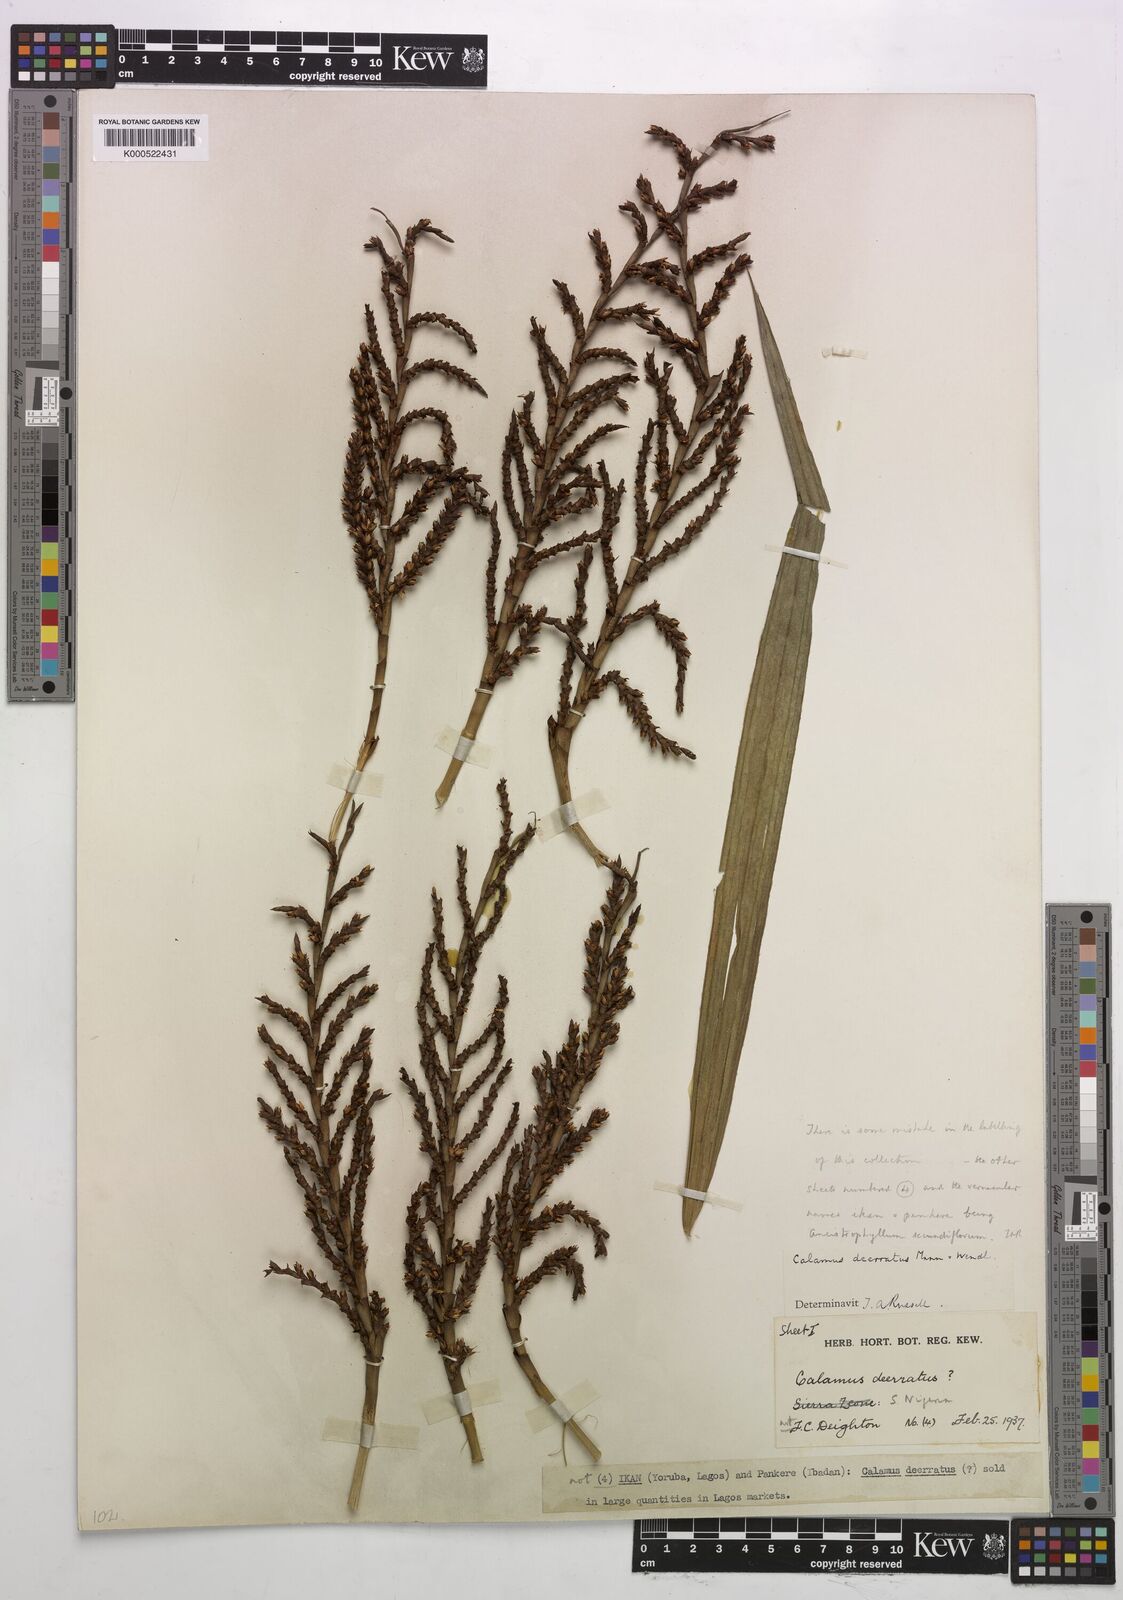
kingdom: Plantae
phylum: Tracheophyta
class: Liliopsida
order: Arecales
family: Arecaceae
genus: Calamus
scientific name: Calamus deerratus
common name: Rattan
